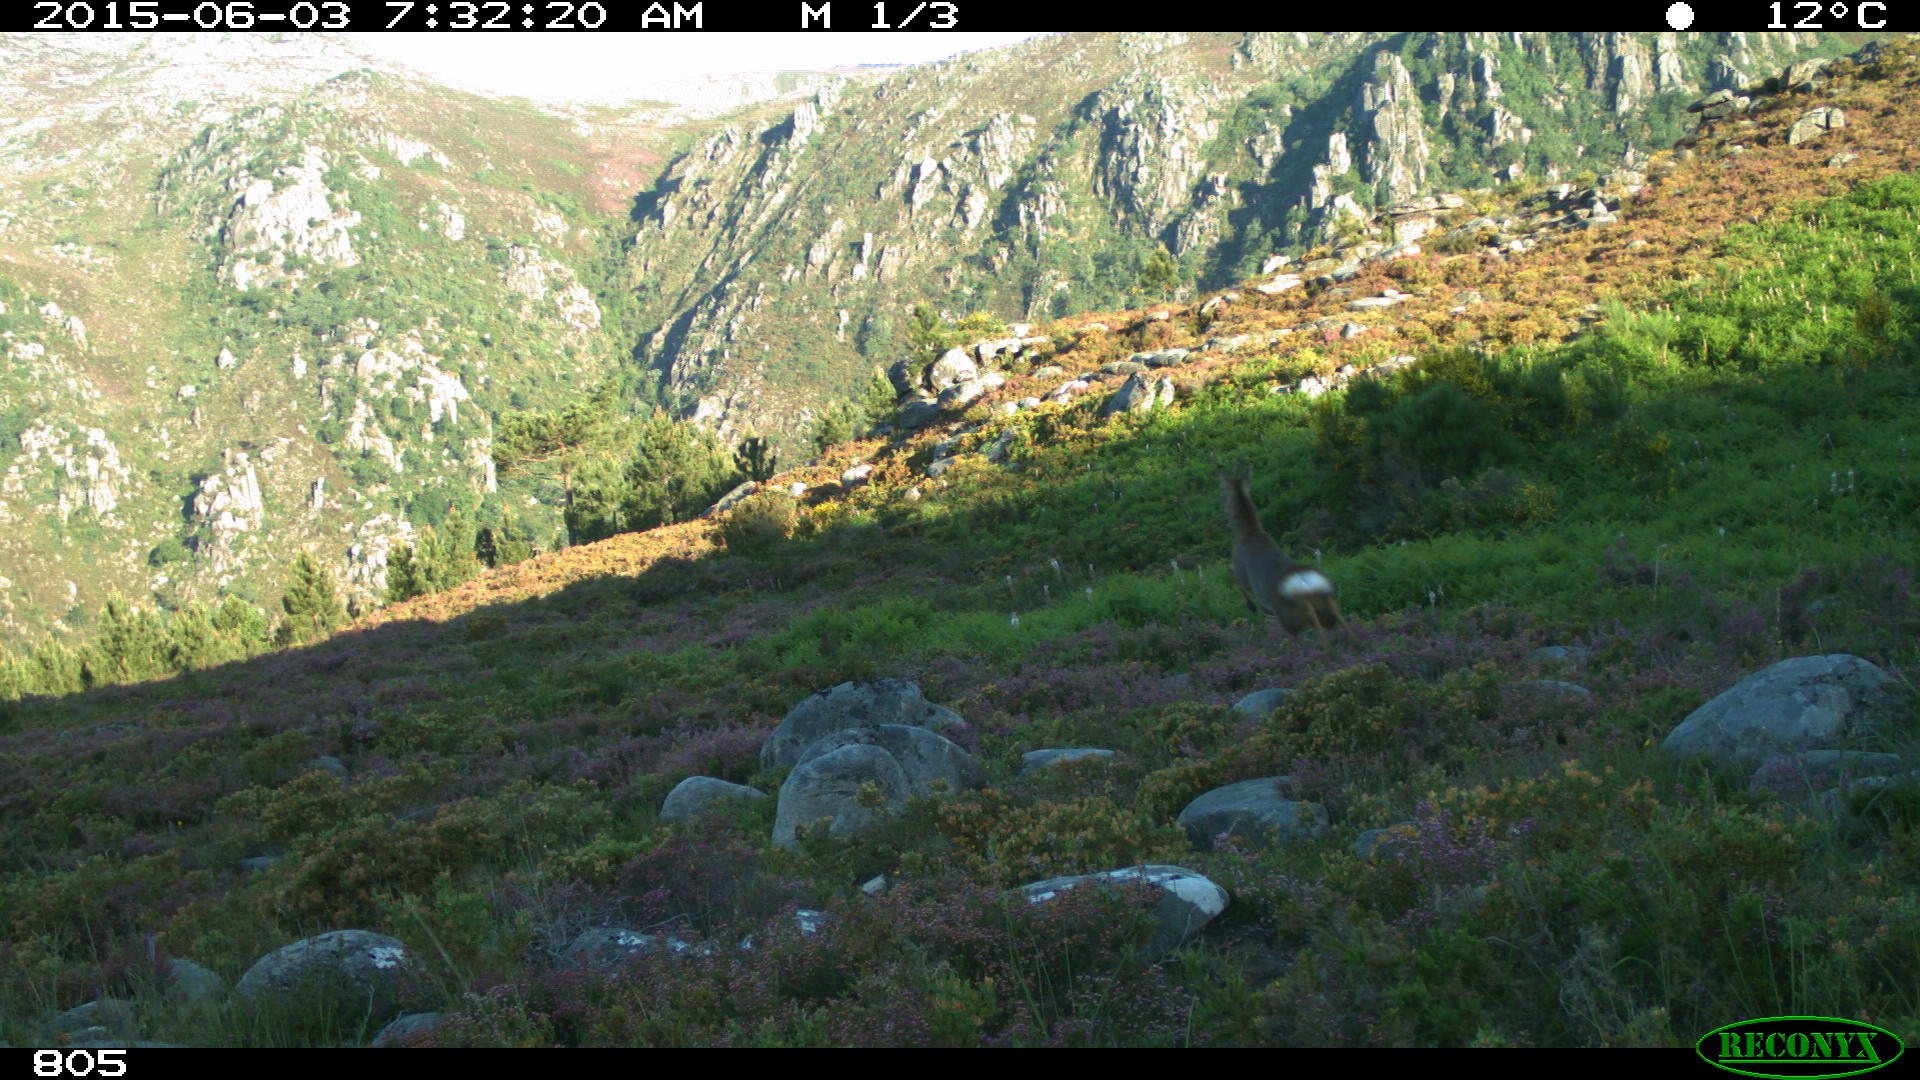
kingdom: Animalia
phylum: Chordata
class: Mammalia
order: Artiodactyla
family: Cervidae
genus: Capreolus
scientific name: Capreolus capreolus
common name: Western roe deer
